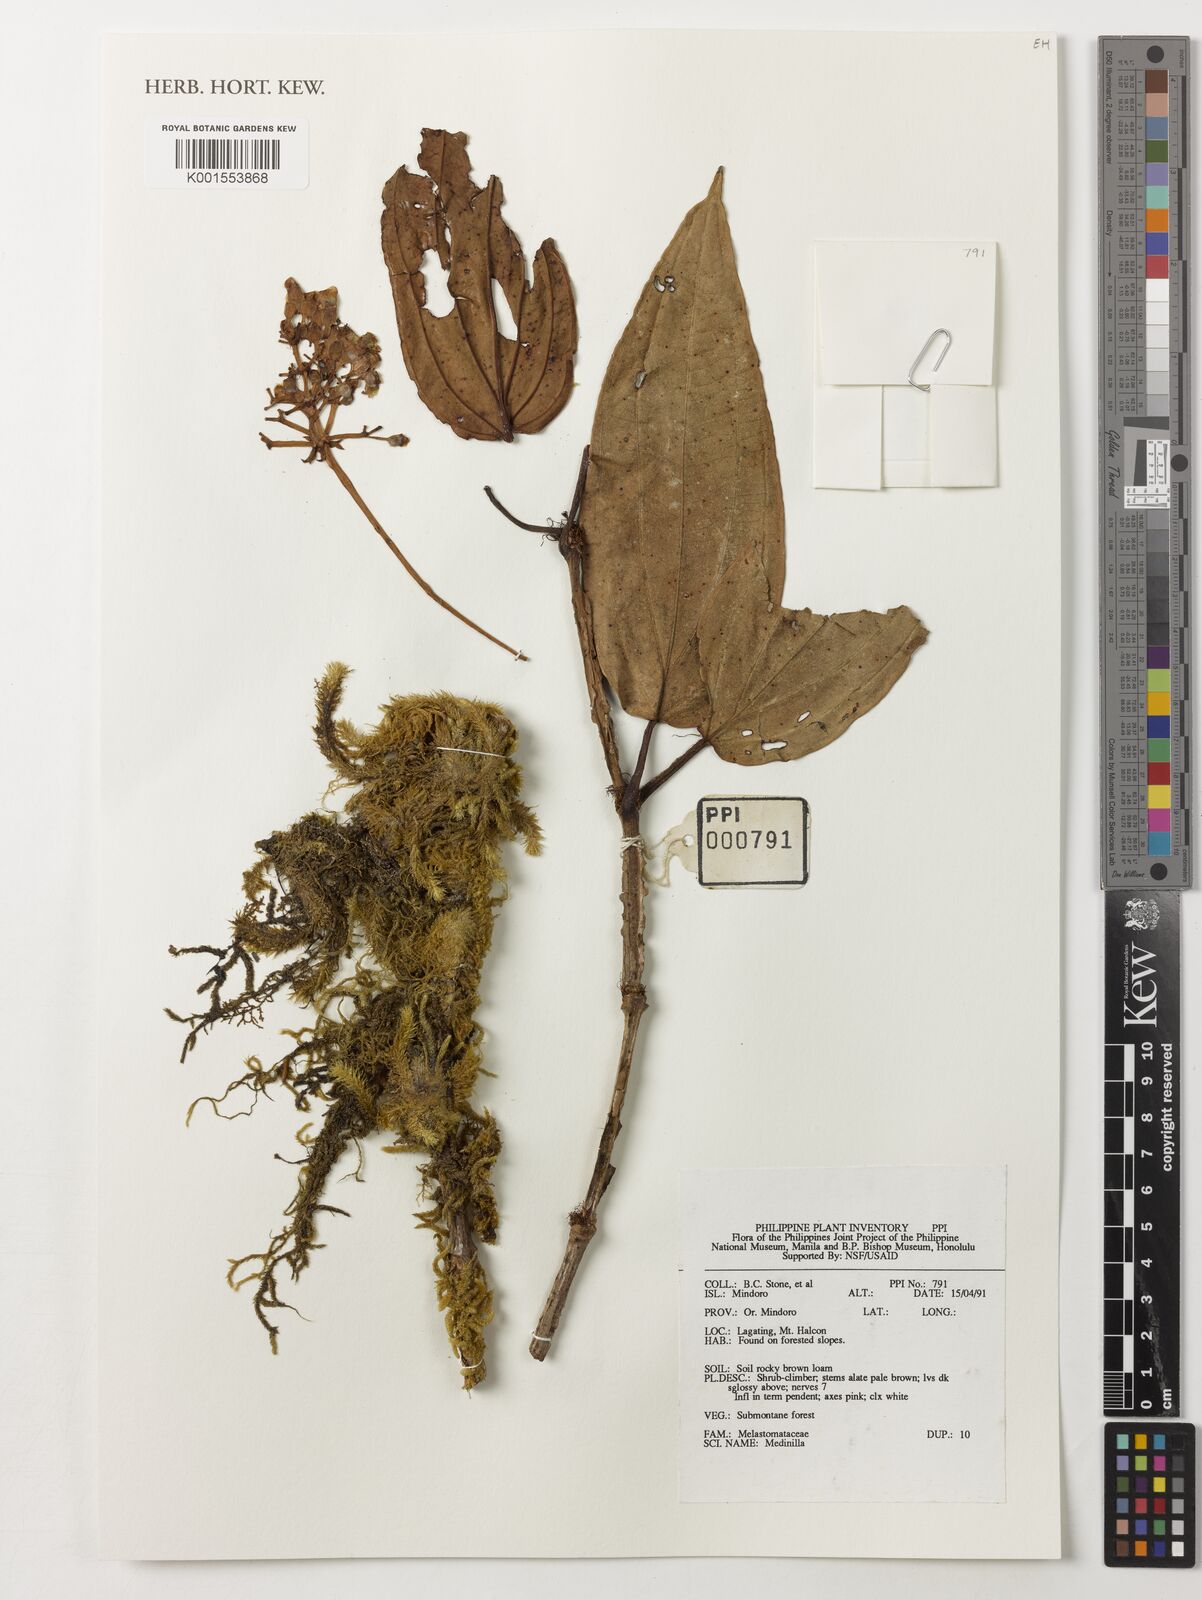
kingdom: Plantae
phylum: Tracheophyta
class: Magnoliopsida
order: Myrtales
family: Melastomataceae
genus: Medinilla
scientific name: Medinilla
